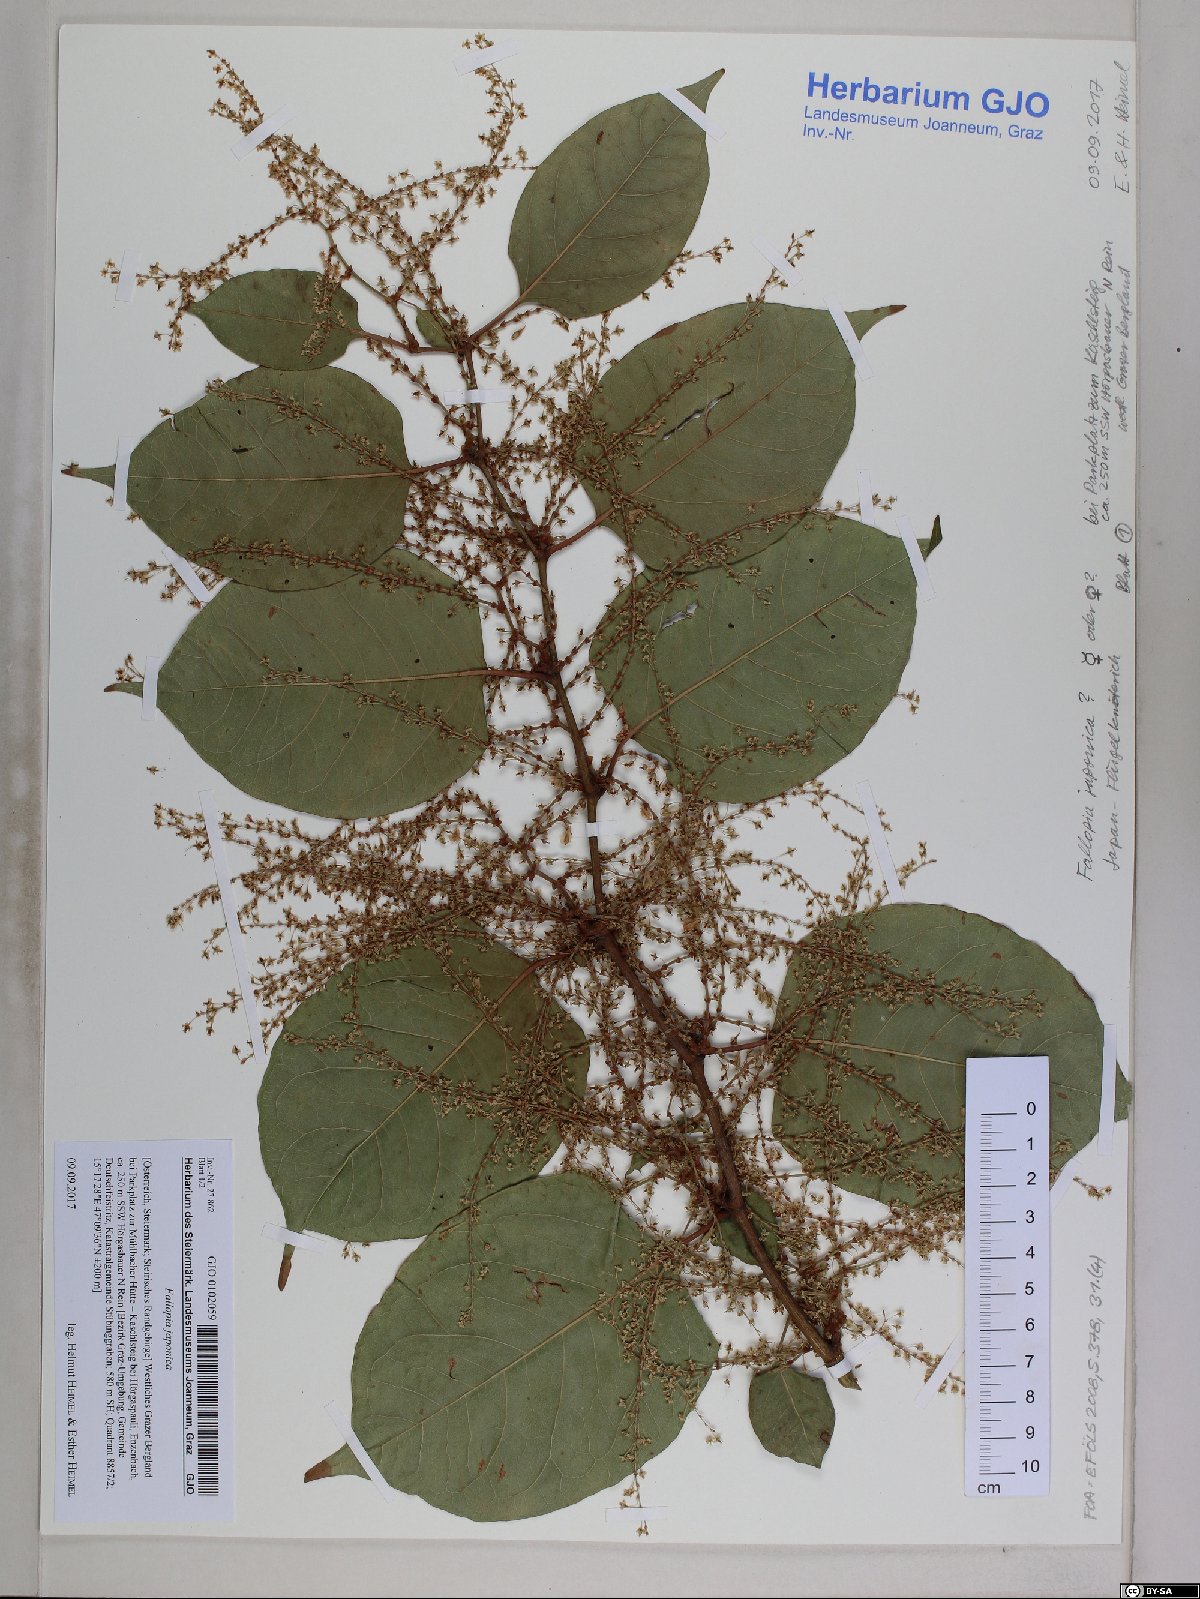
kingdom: Plantae
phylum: Tracheophyta
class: Magnoliopsida
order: Caryophyllales
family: Polygonaceae
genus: Reynoutria
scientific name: Reynoutria japonica
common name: Japanese knotweed
